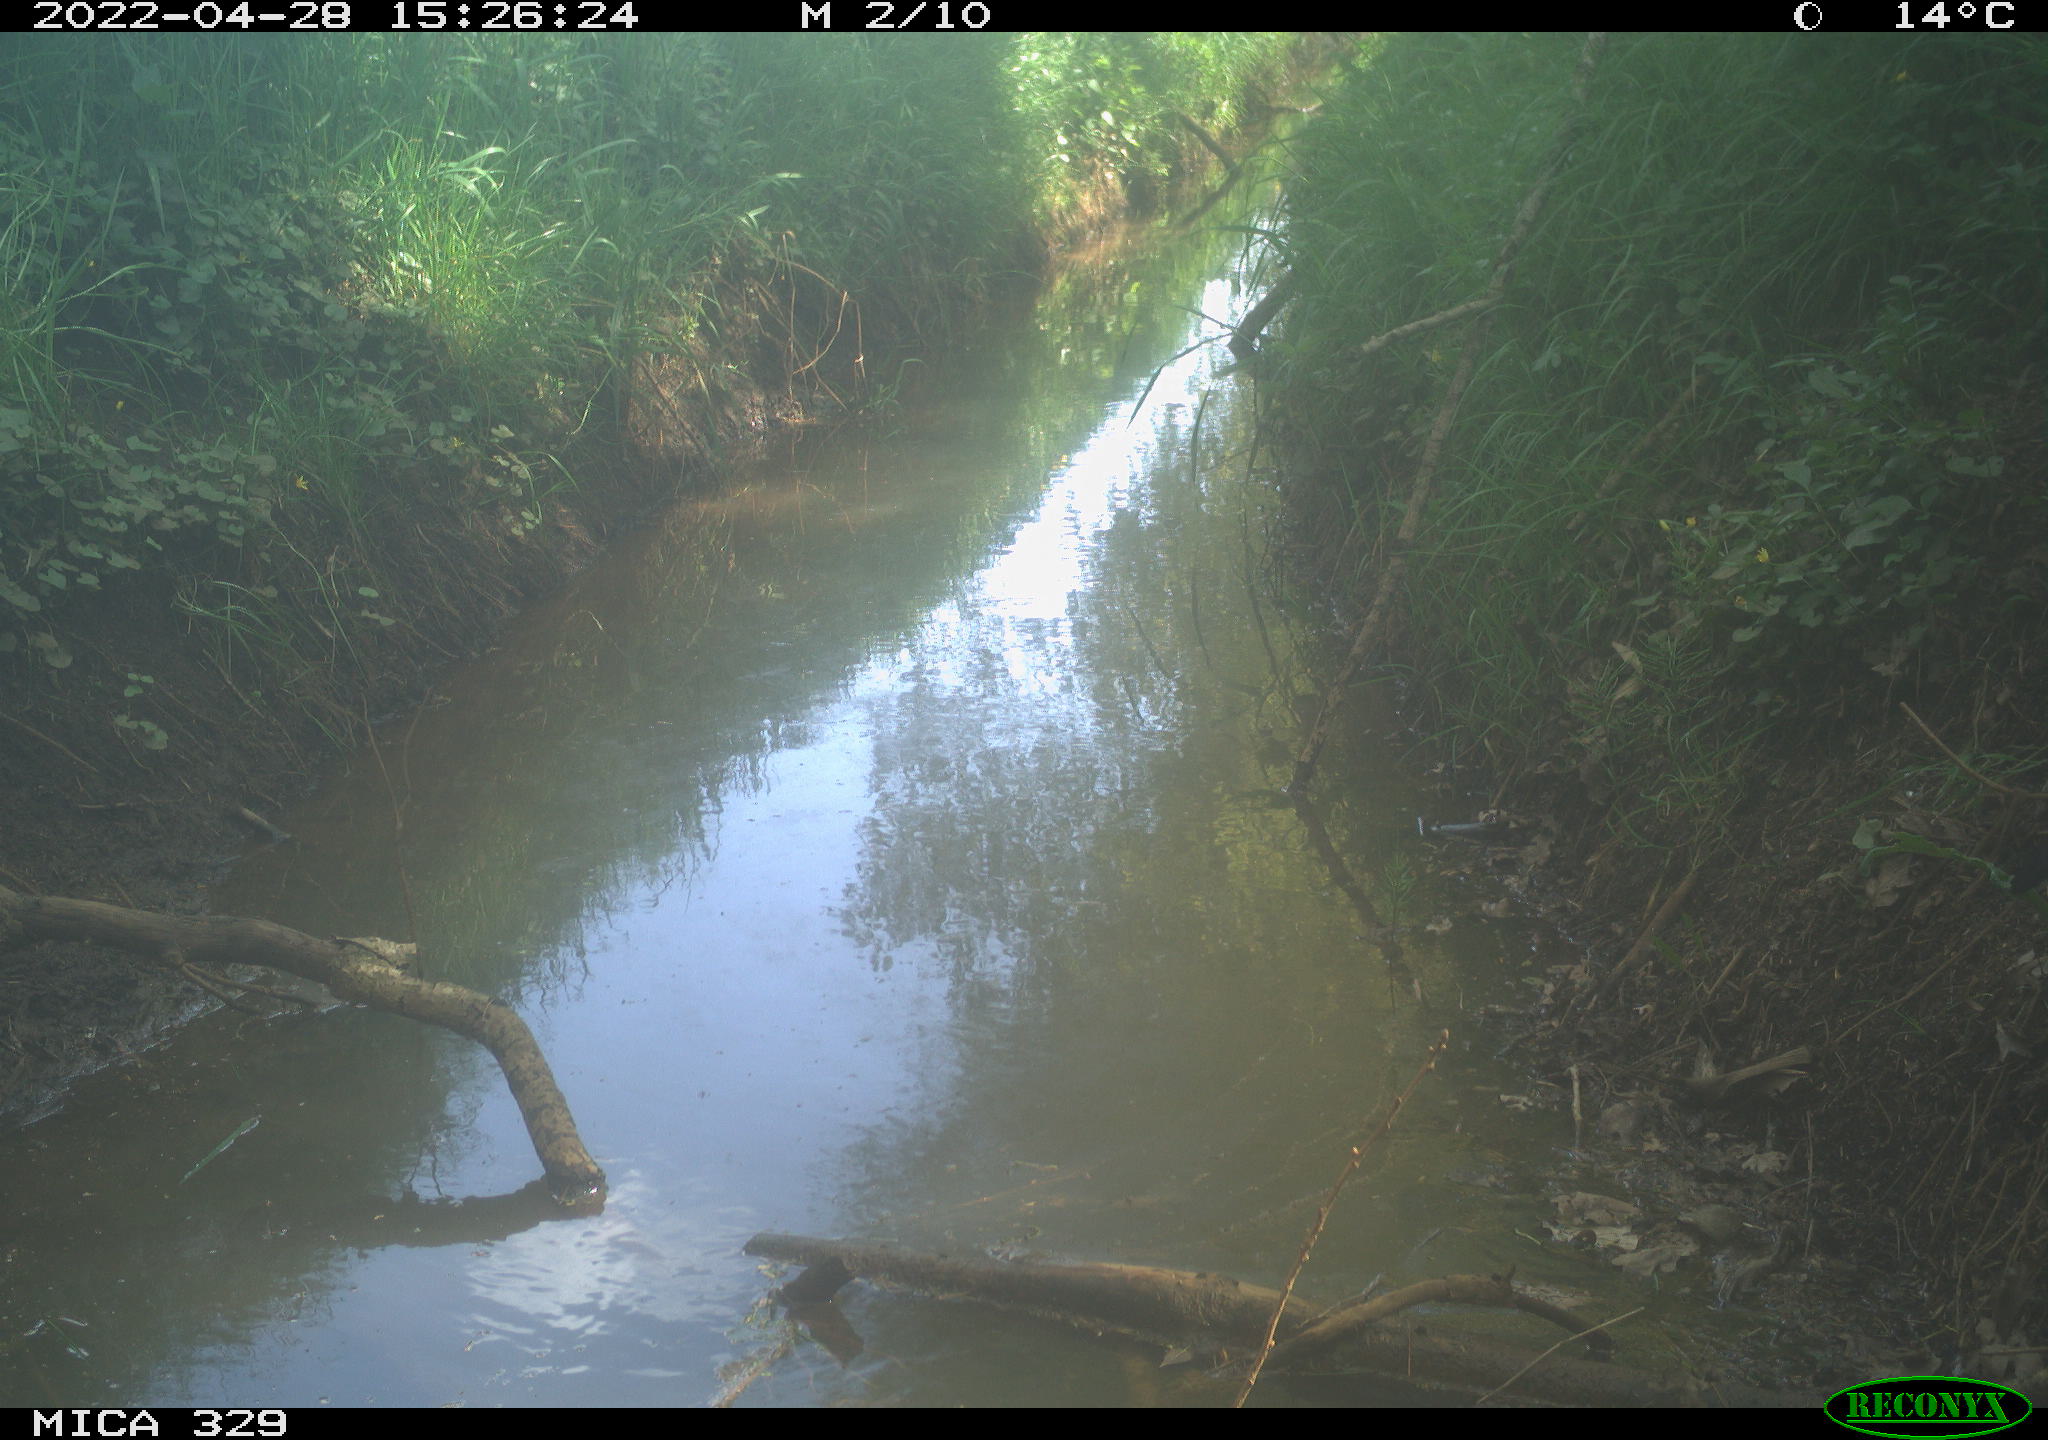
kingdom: Animalia
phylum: Chordata
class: Aves
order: Passeriformes
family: Corvidae
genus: Garrulus
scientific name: Garrulus glandarius
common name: Eurasian jay
